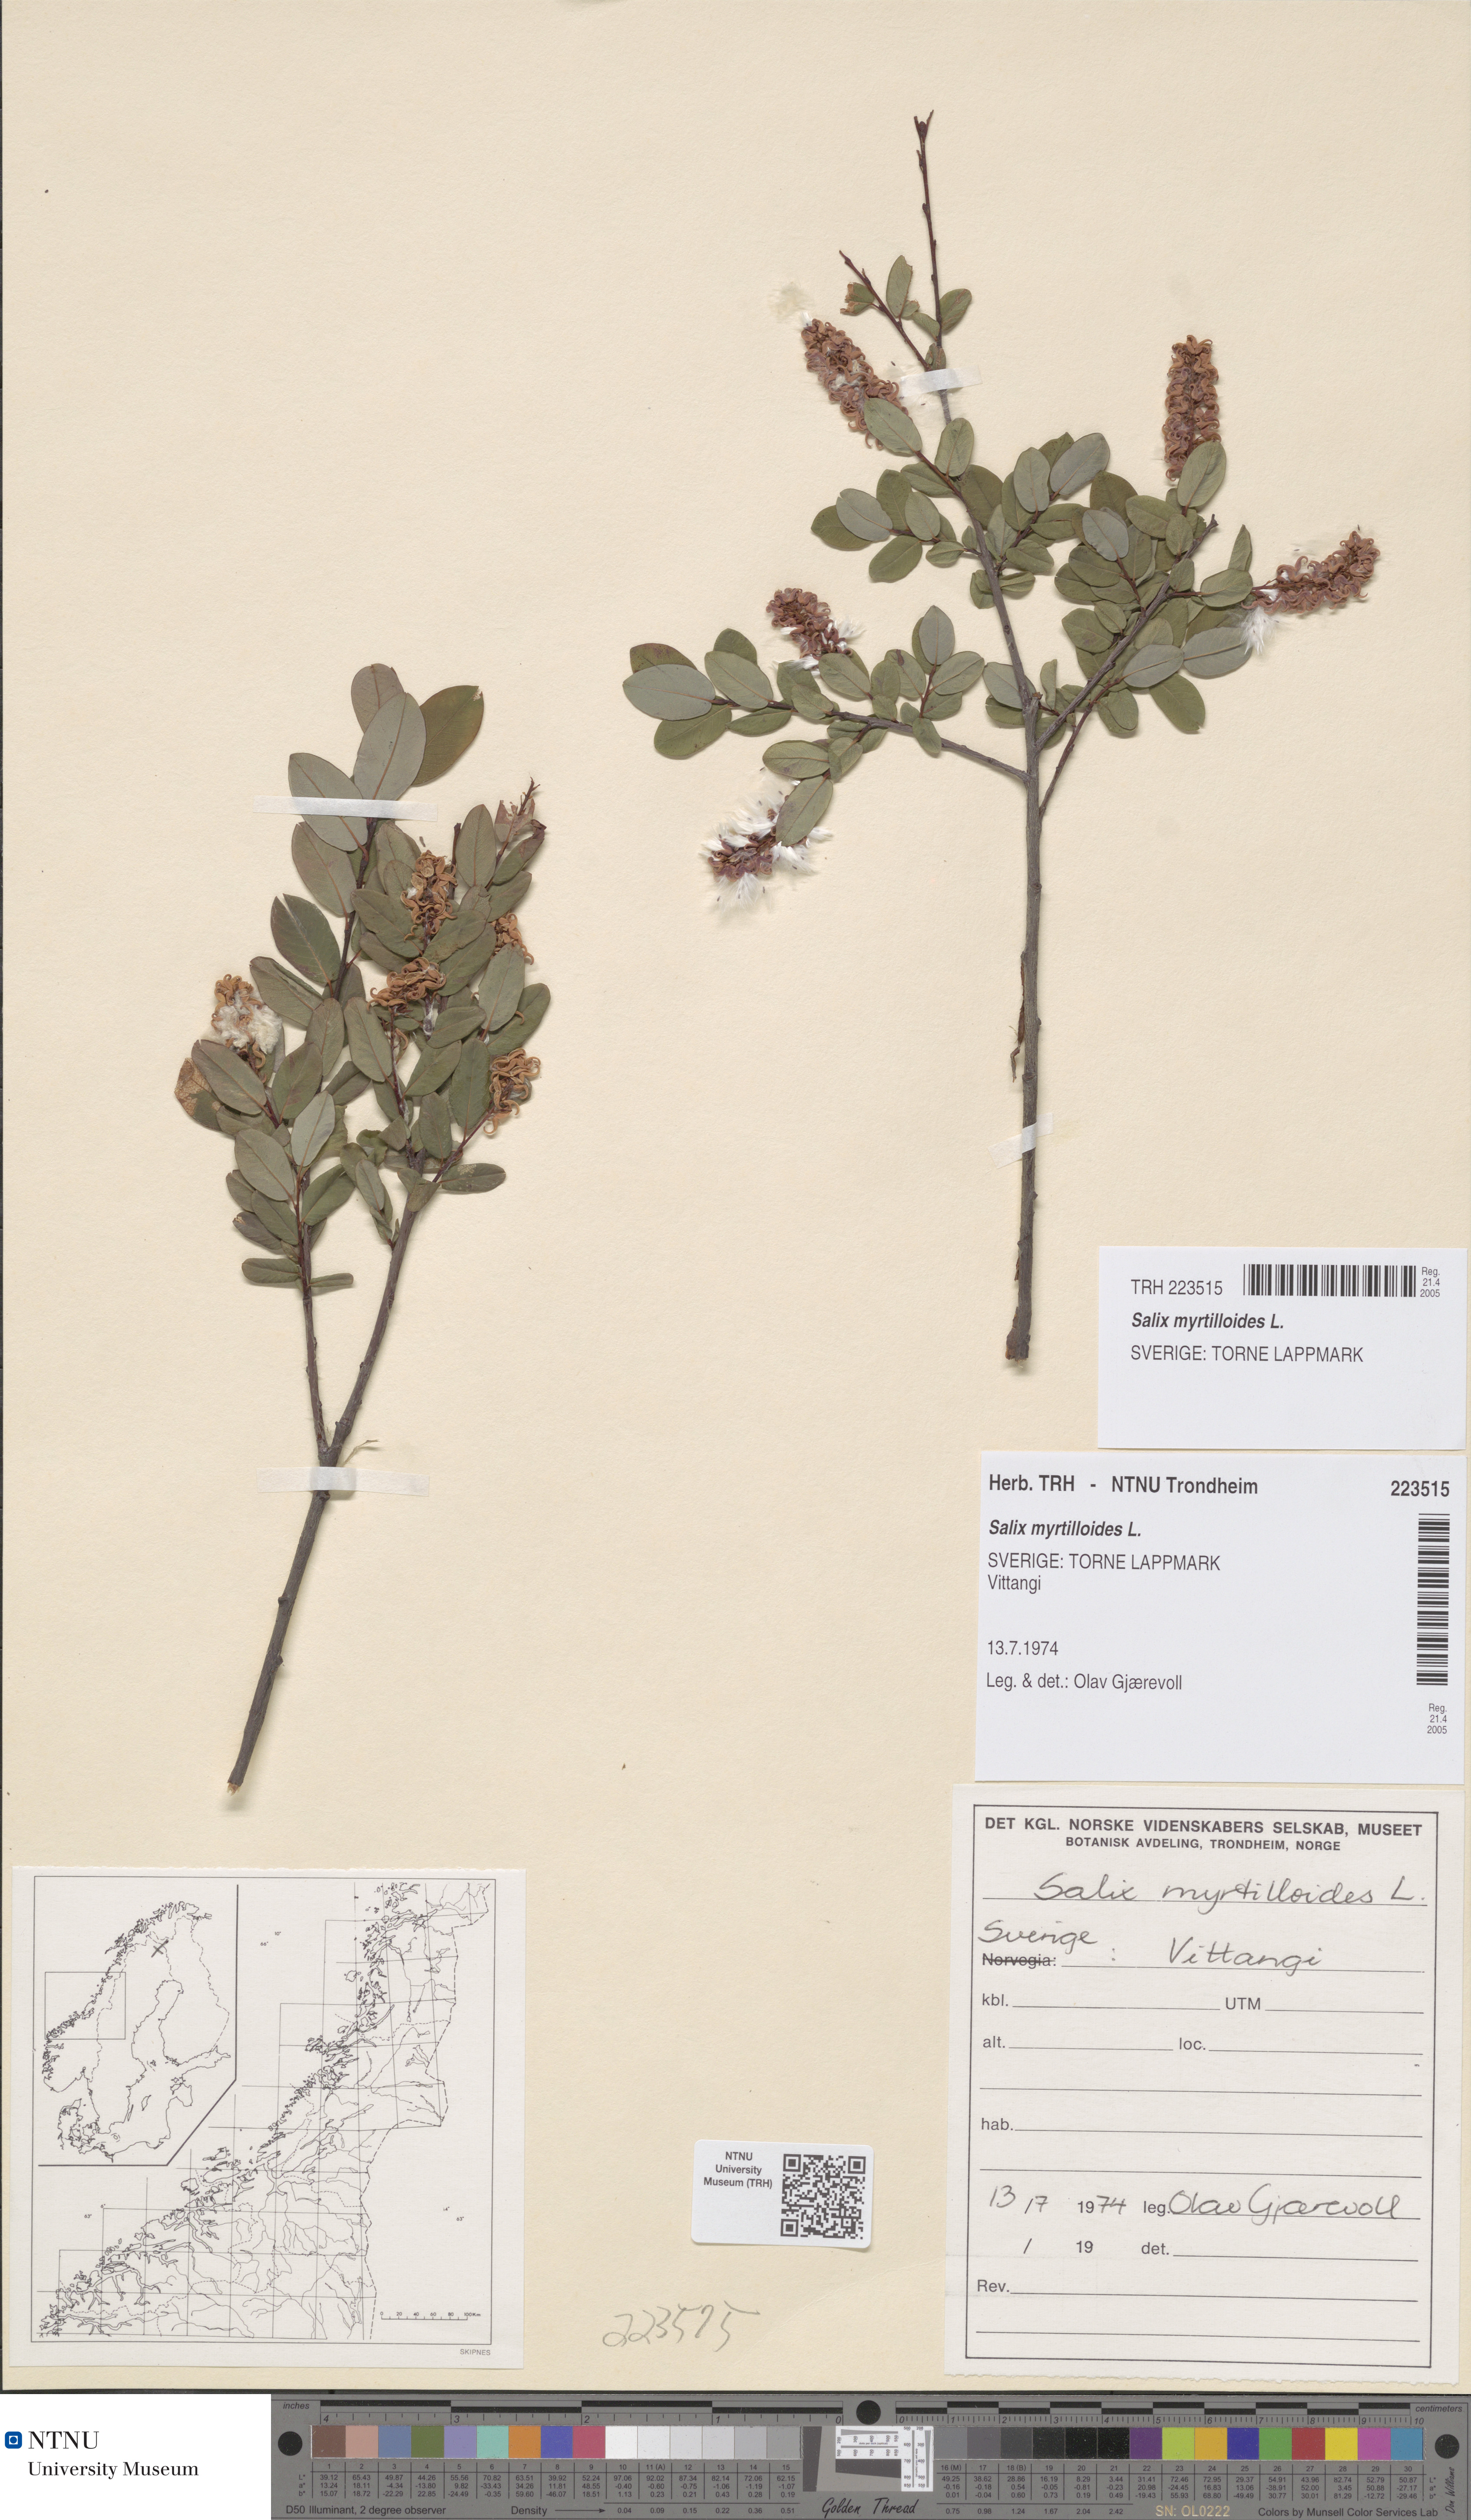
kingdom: Plantae
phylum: Tracheophyta
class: Magnoliopsida
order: Malpighiales
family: Salicaceae
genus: Salix
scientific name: Salix myrtilloides
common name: Myrtle-leaved willow
